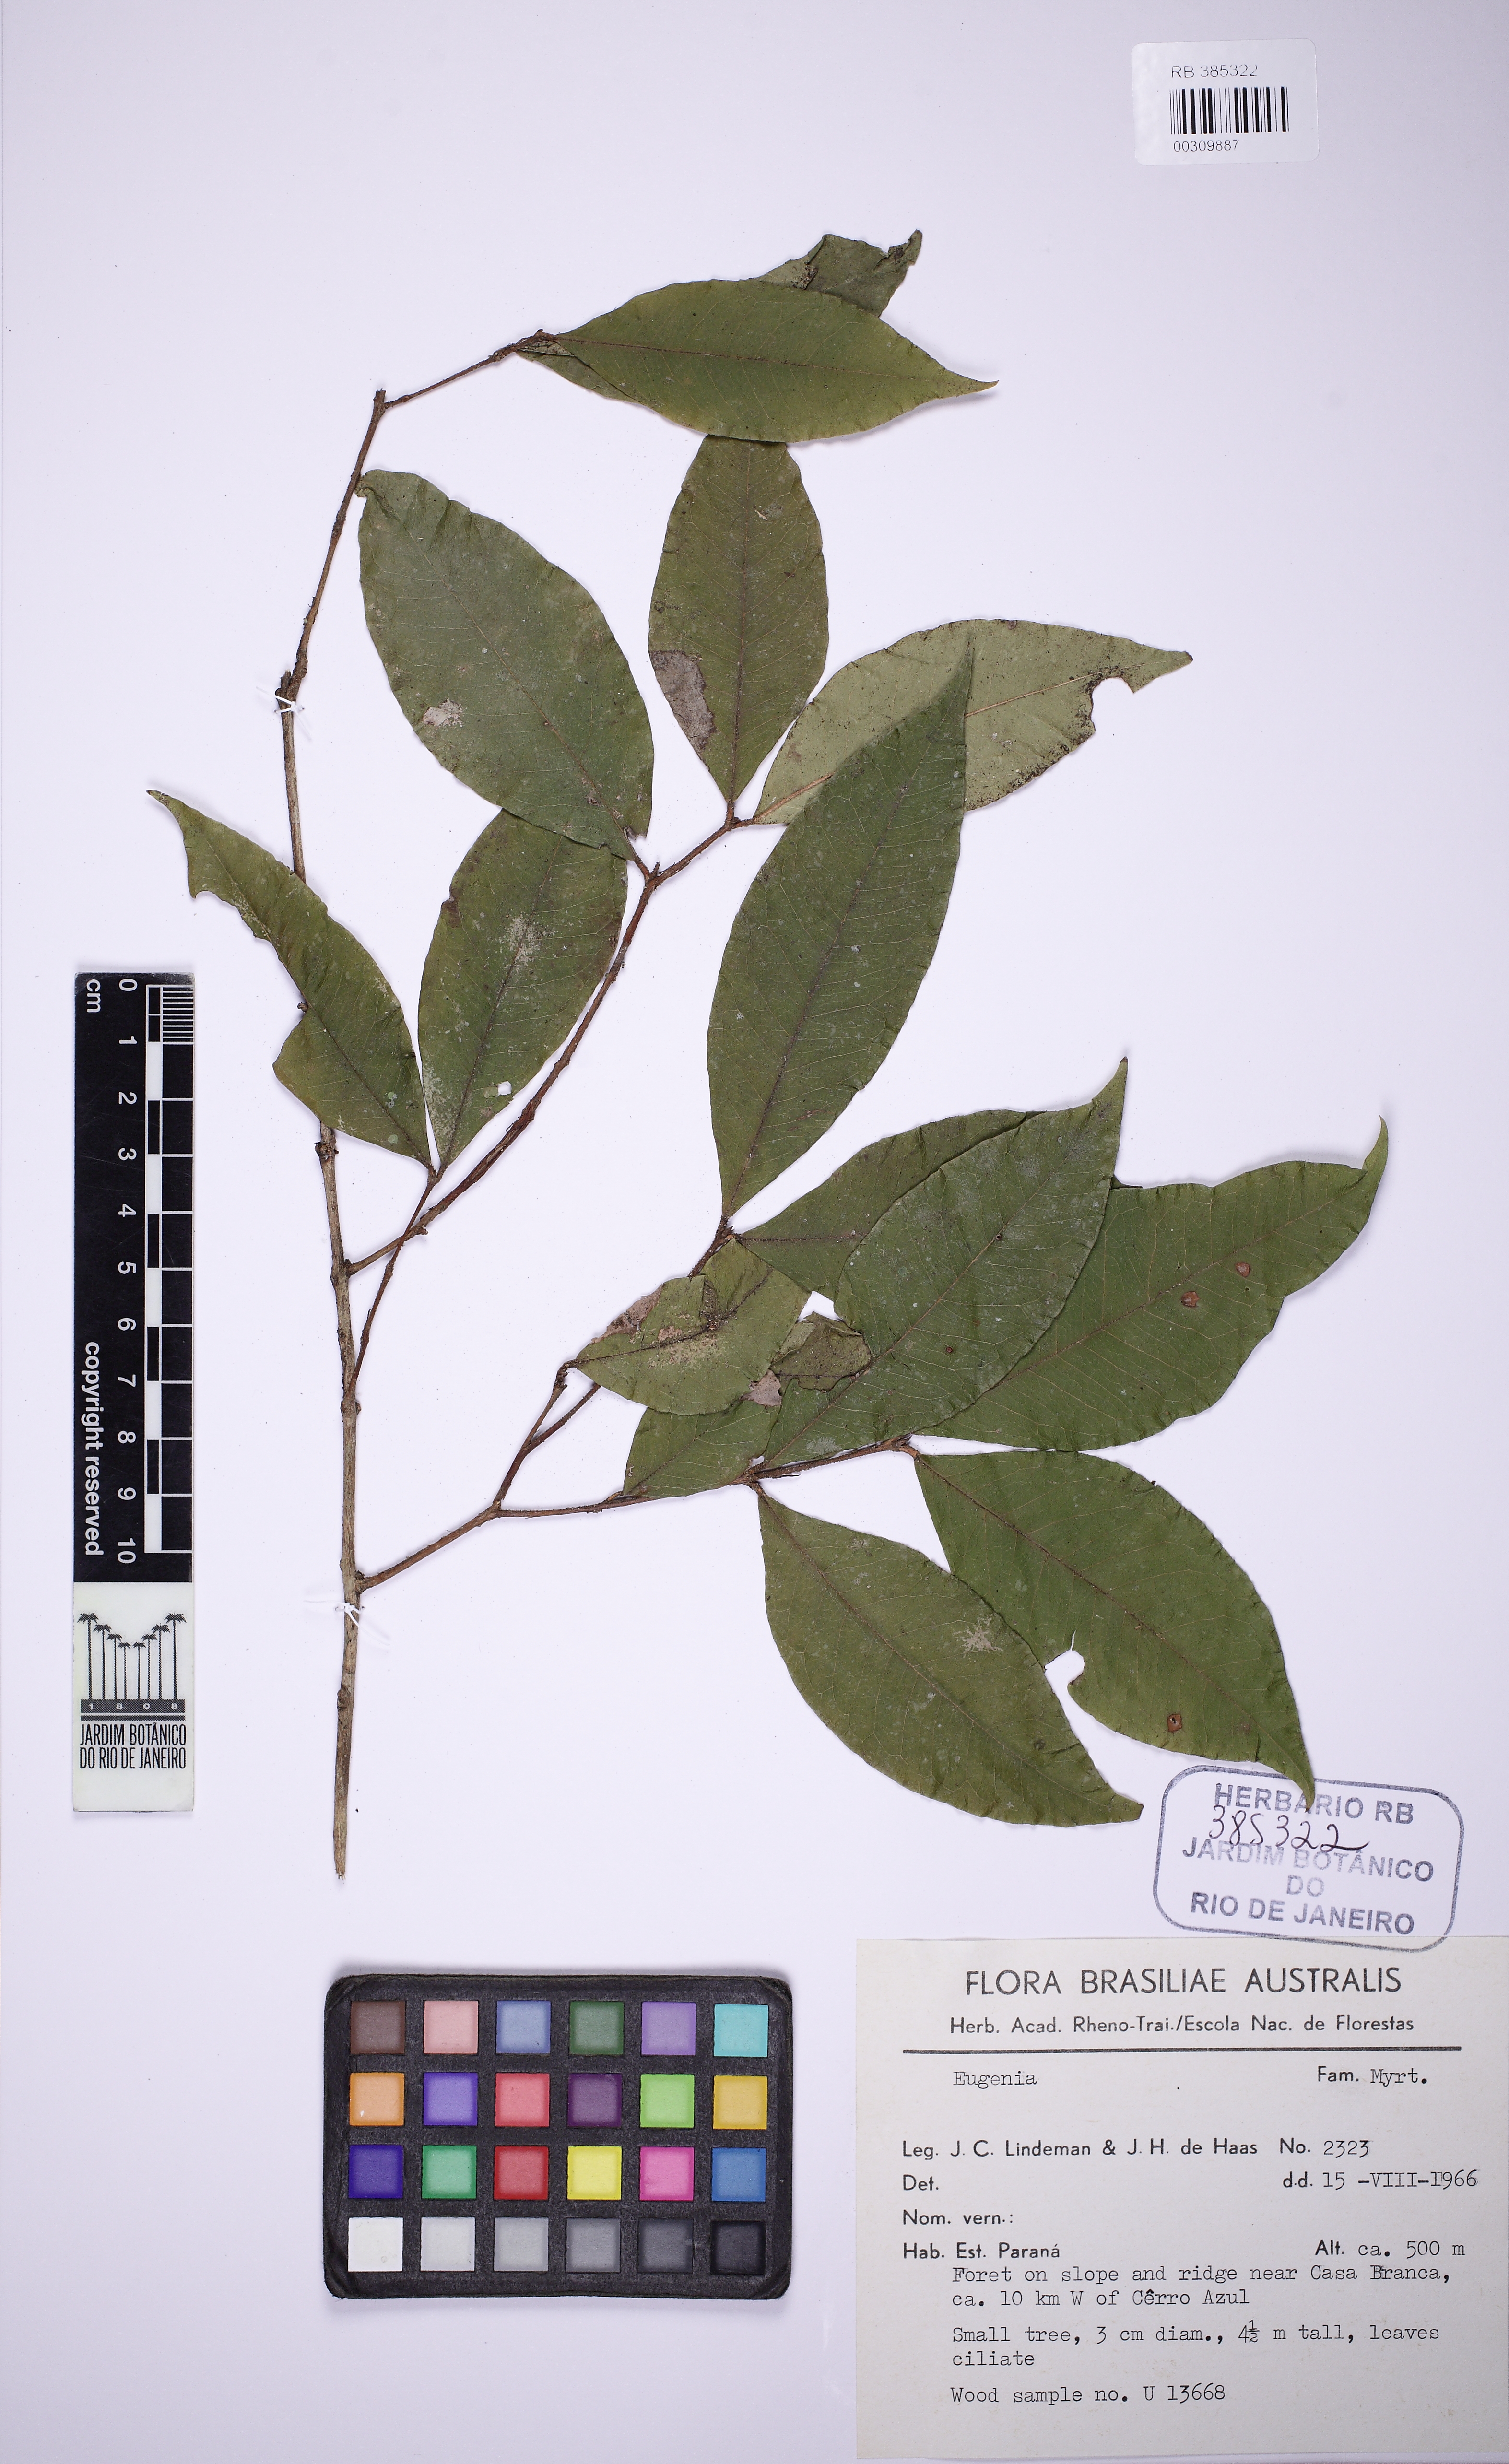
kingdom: Plantae
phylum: Tracheophyta
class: Magnoliopsida
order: Myrtales
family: Myrtaceae
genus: Eugenia
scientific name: Eugenia
